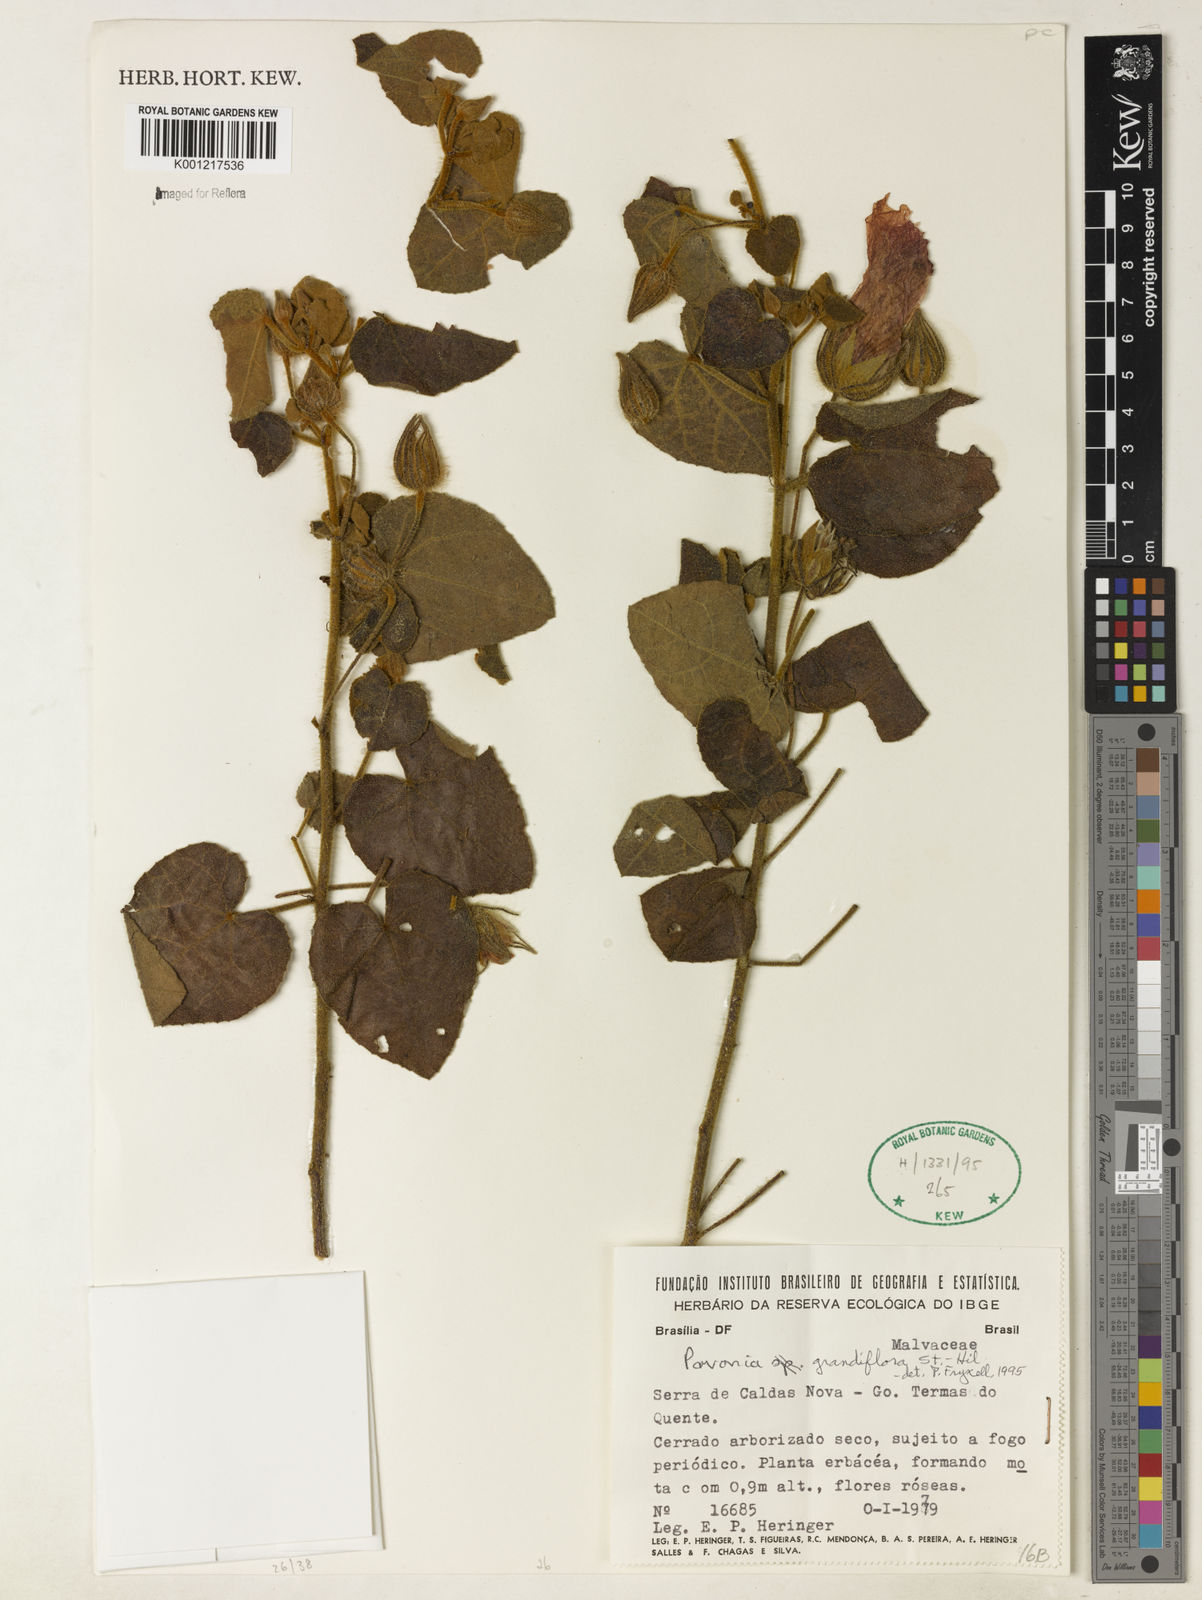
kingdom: Plantae
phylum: Tracheophyta
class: Magnoliopsida
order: Lamiales
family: Lamiaceae
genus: Marsypianthes
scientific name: Marsypianthes burchellii
